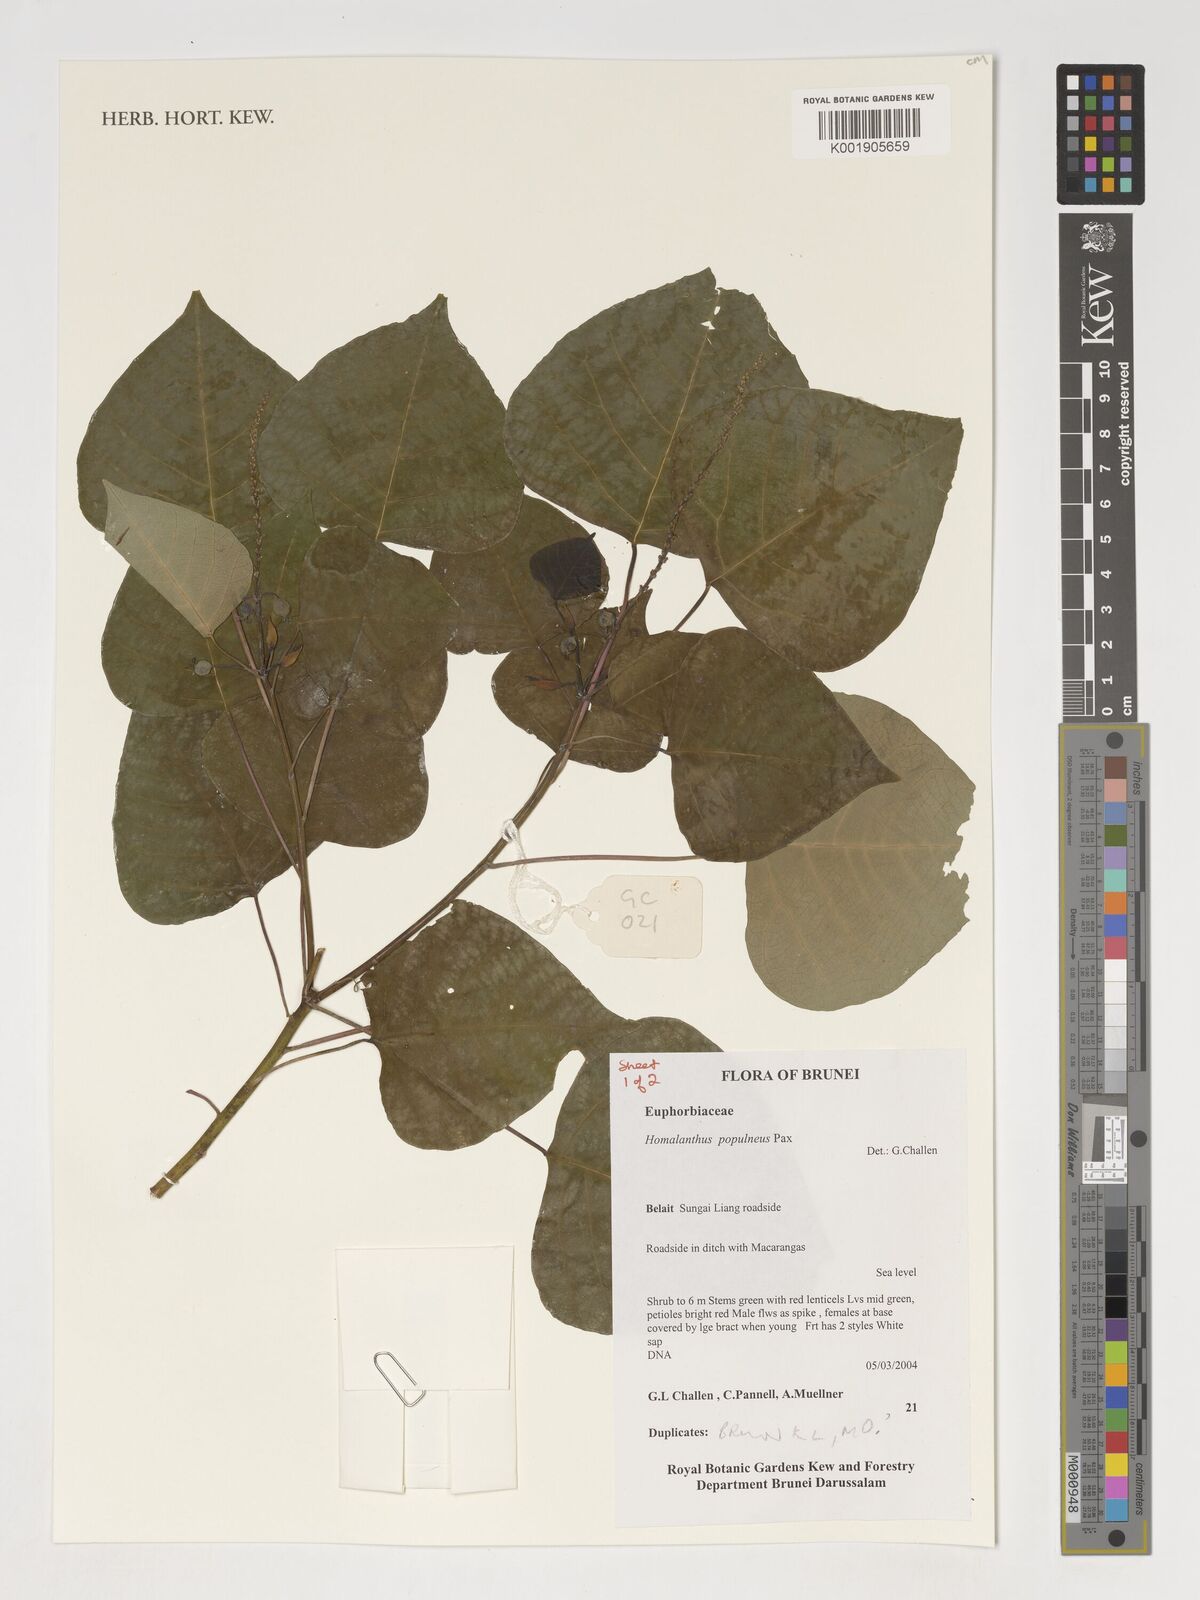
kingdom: Plantae
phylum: Tracheophyta
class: Magnoliopsida
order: Malpighiales
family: Euphorbiaceae
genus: Homalanthus
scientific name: Homalanthus populneus
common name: Spurge
